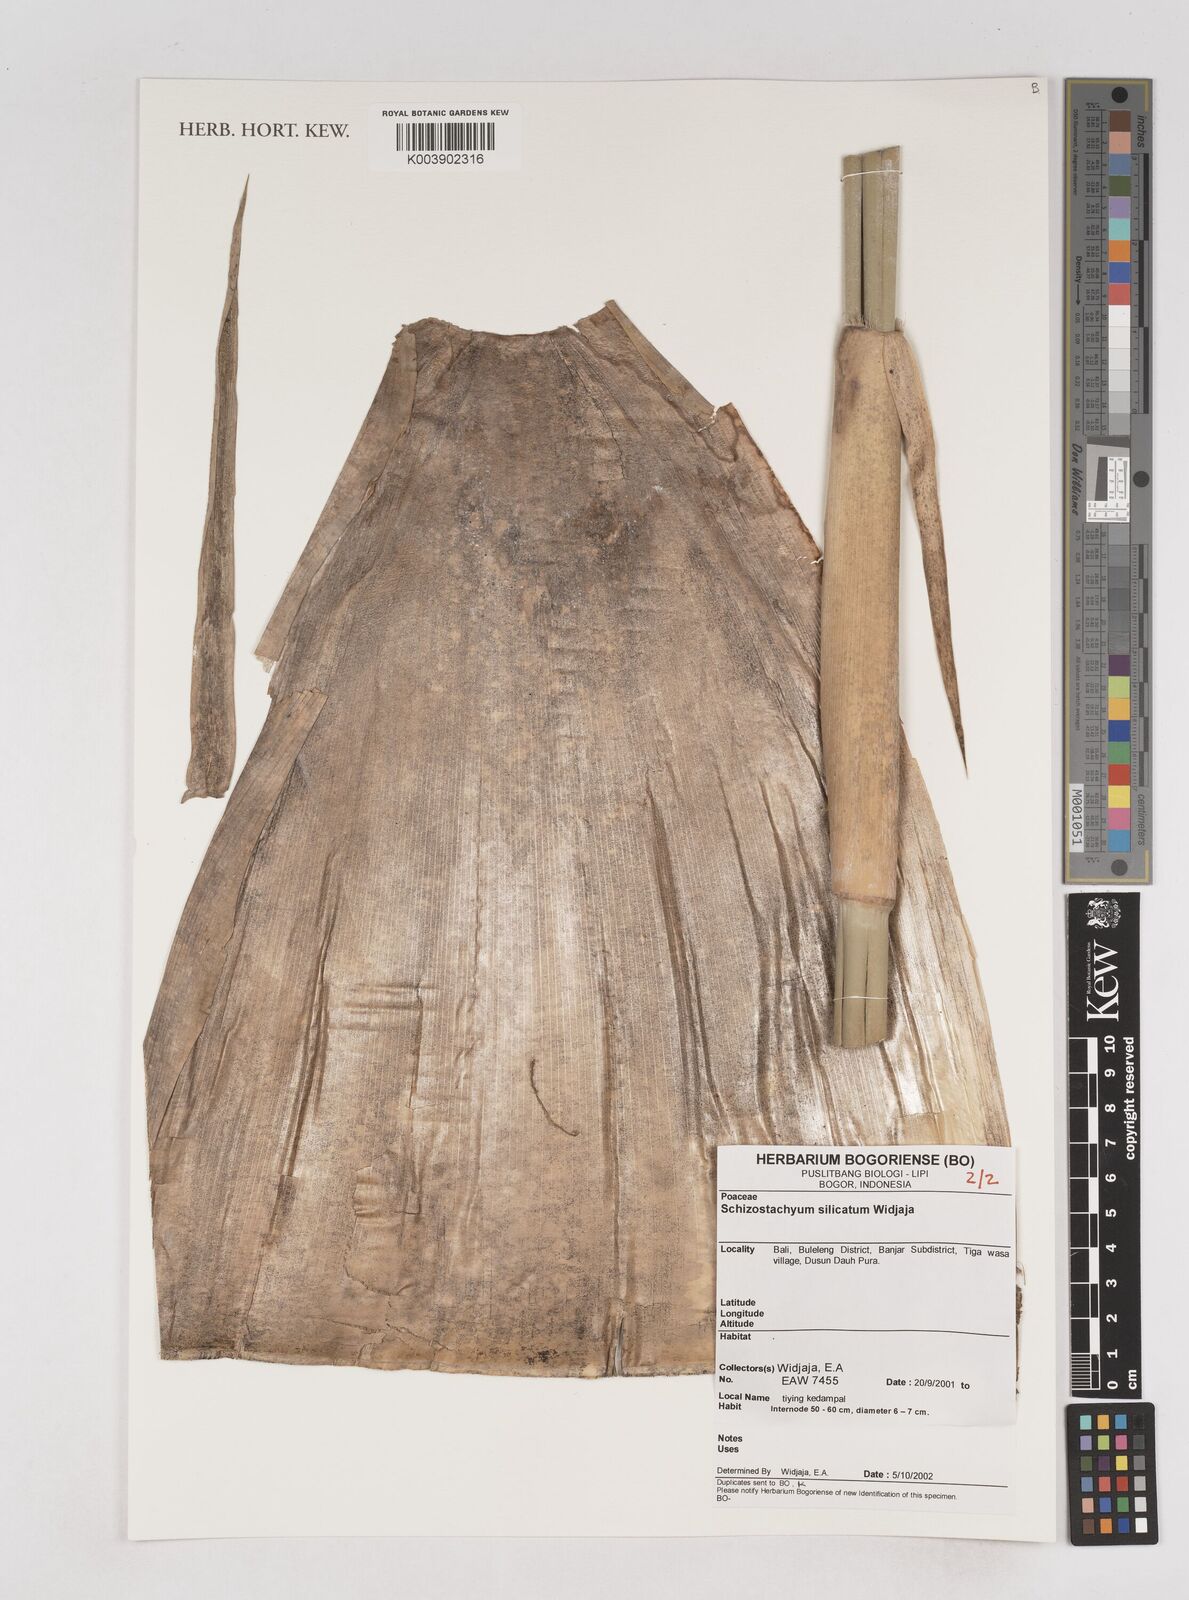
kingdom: Plantae
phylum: Tracheophyta
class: Liliopsida
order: Poales
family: Poaceae
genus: Schizostachyum
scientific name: Schizostachyum silicatum
